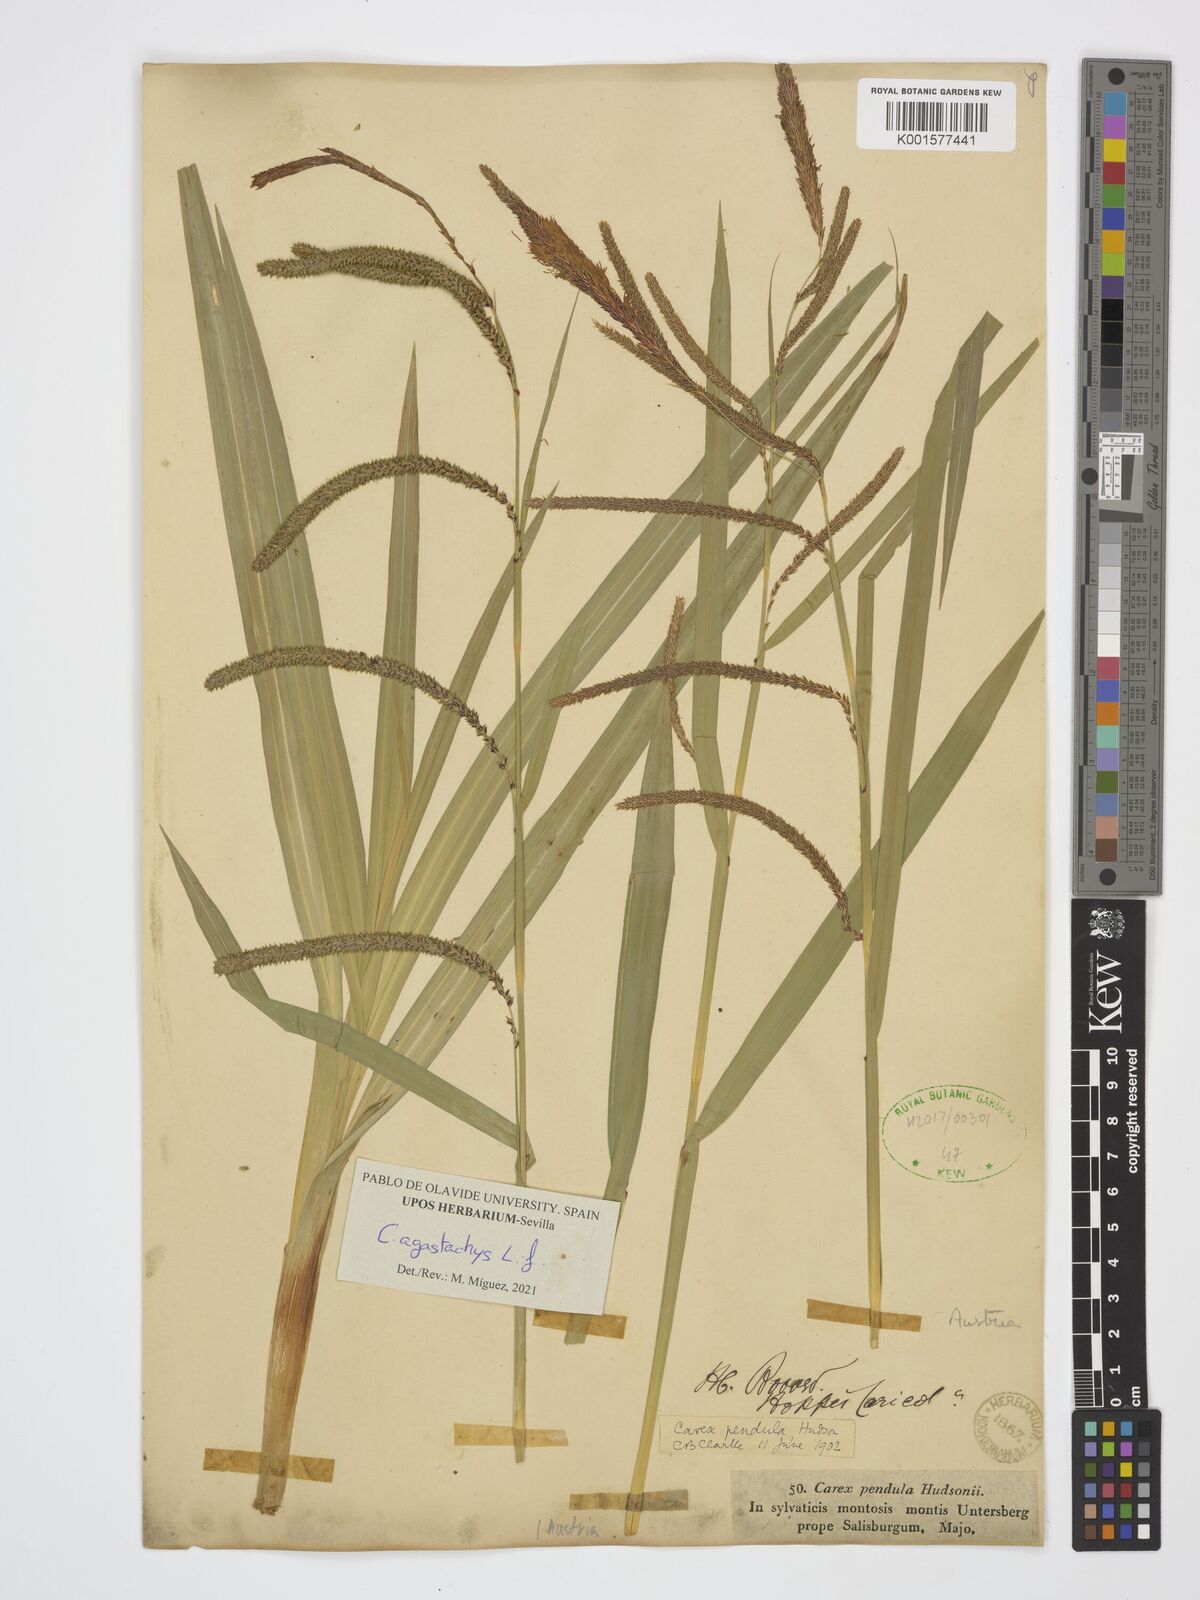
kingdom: Plantae
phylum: Tracheophyta
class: Liliopsida
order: Poales
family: Cyperaceae
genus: Carex
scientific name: Carex agastachys
